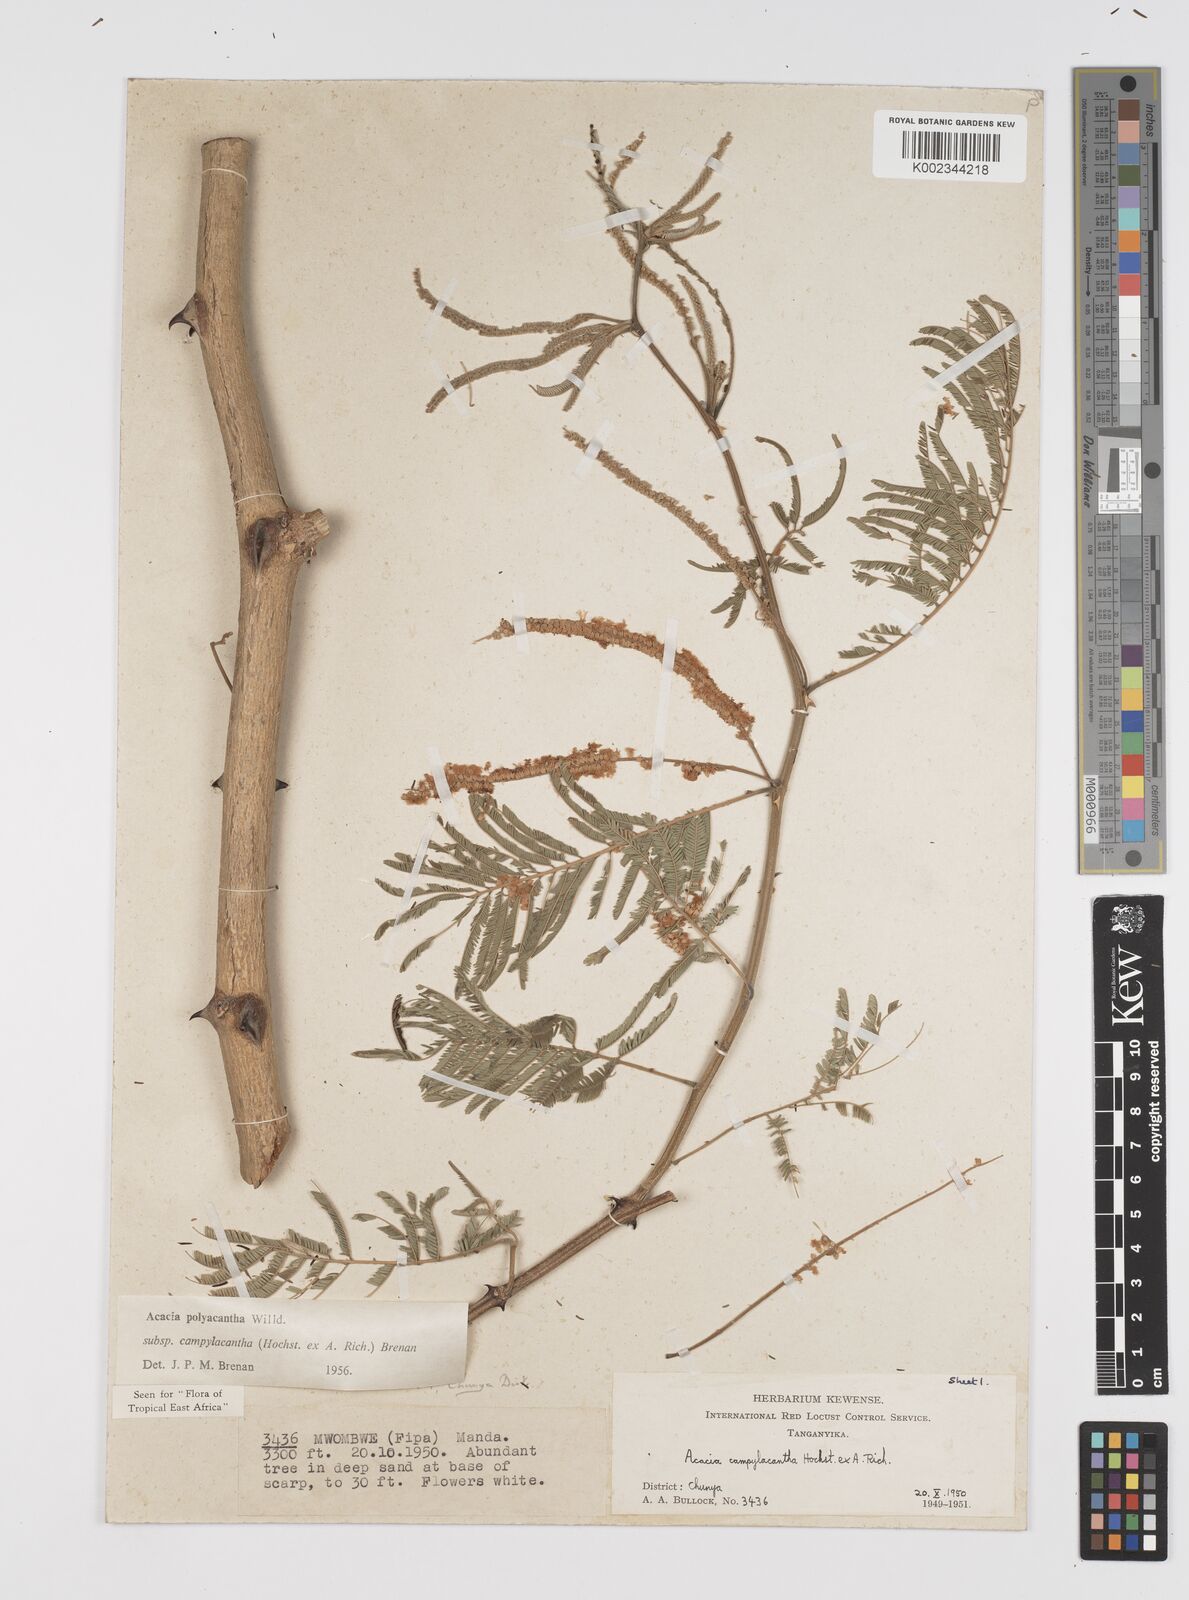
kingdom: Plantae
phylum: Tracheophyta
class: Magnoliopsida
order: Fabales
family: Fabaceae
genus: Senegalia
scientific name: Senegalia polyacantha
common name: Whitethorn
